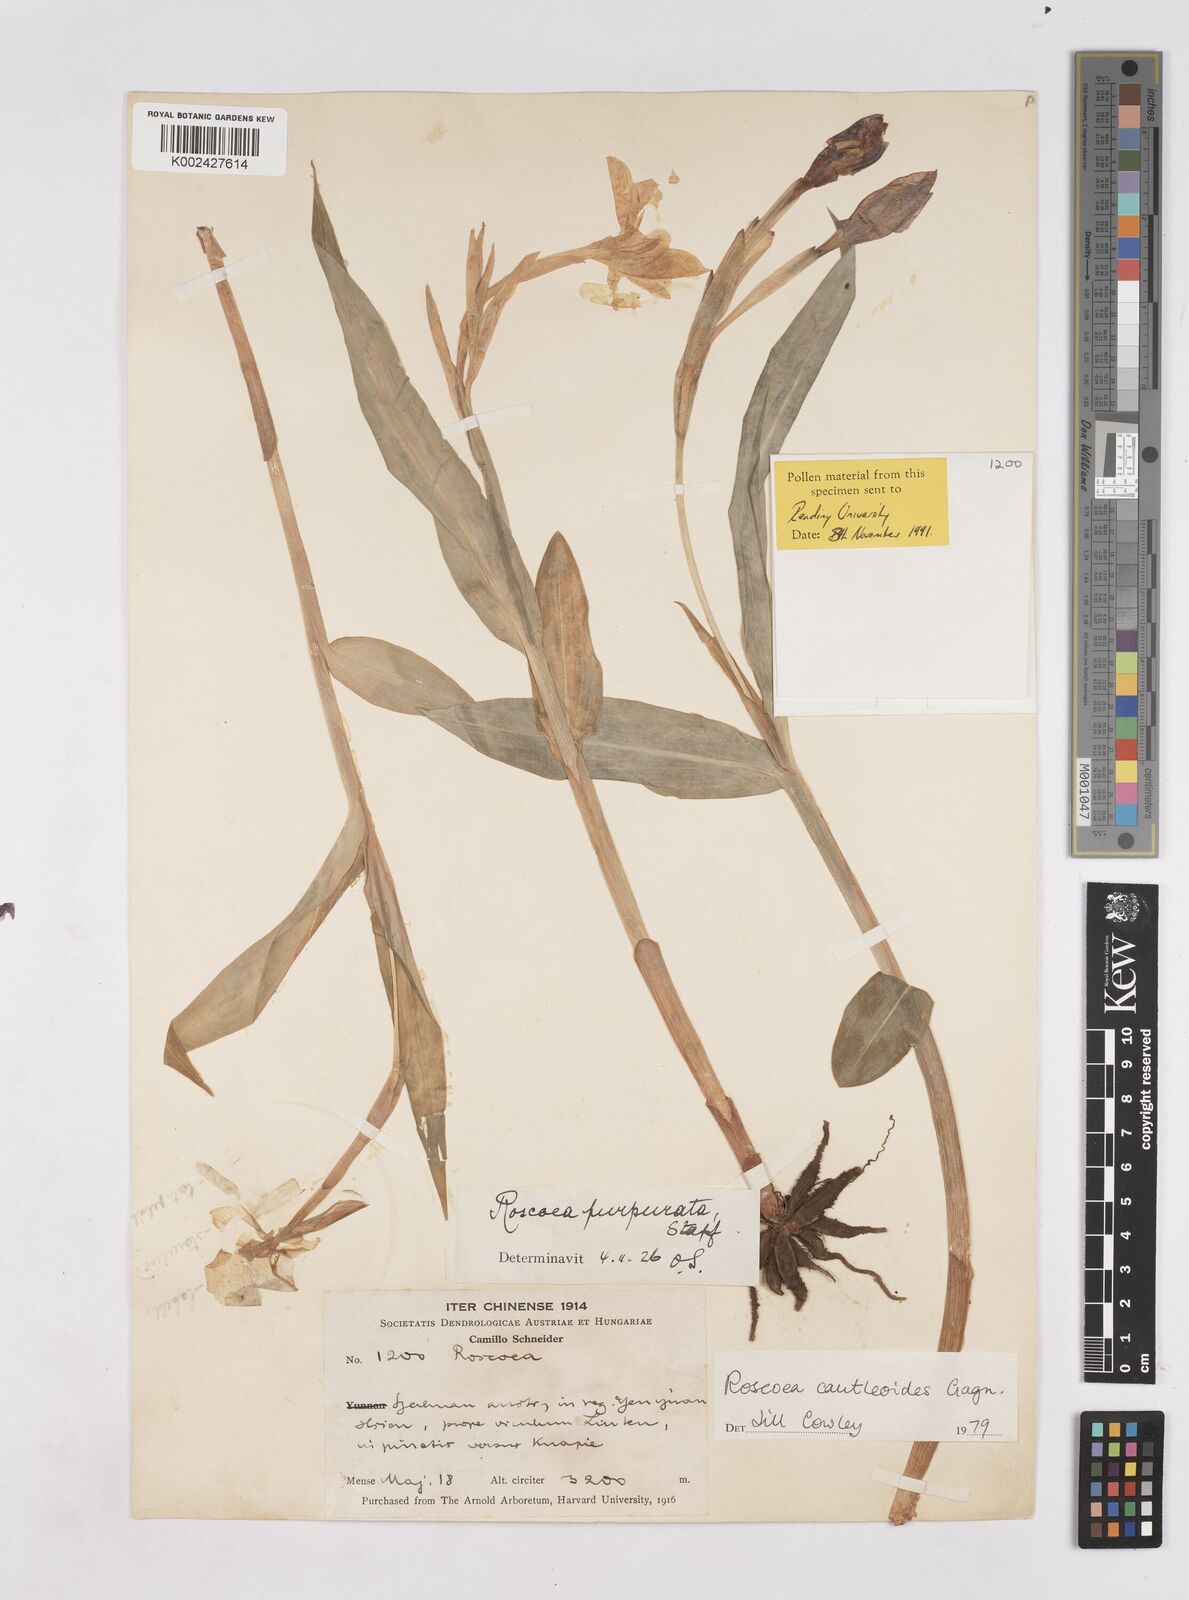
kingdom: Plantae
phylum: Tracheophyta
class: Liliopsida
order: Zingiberales
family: Zingiberaceae
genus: Roscoea
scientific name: Roscoea cautleyoides
